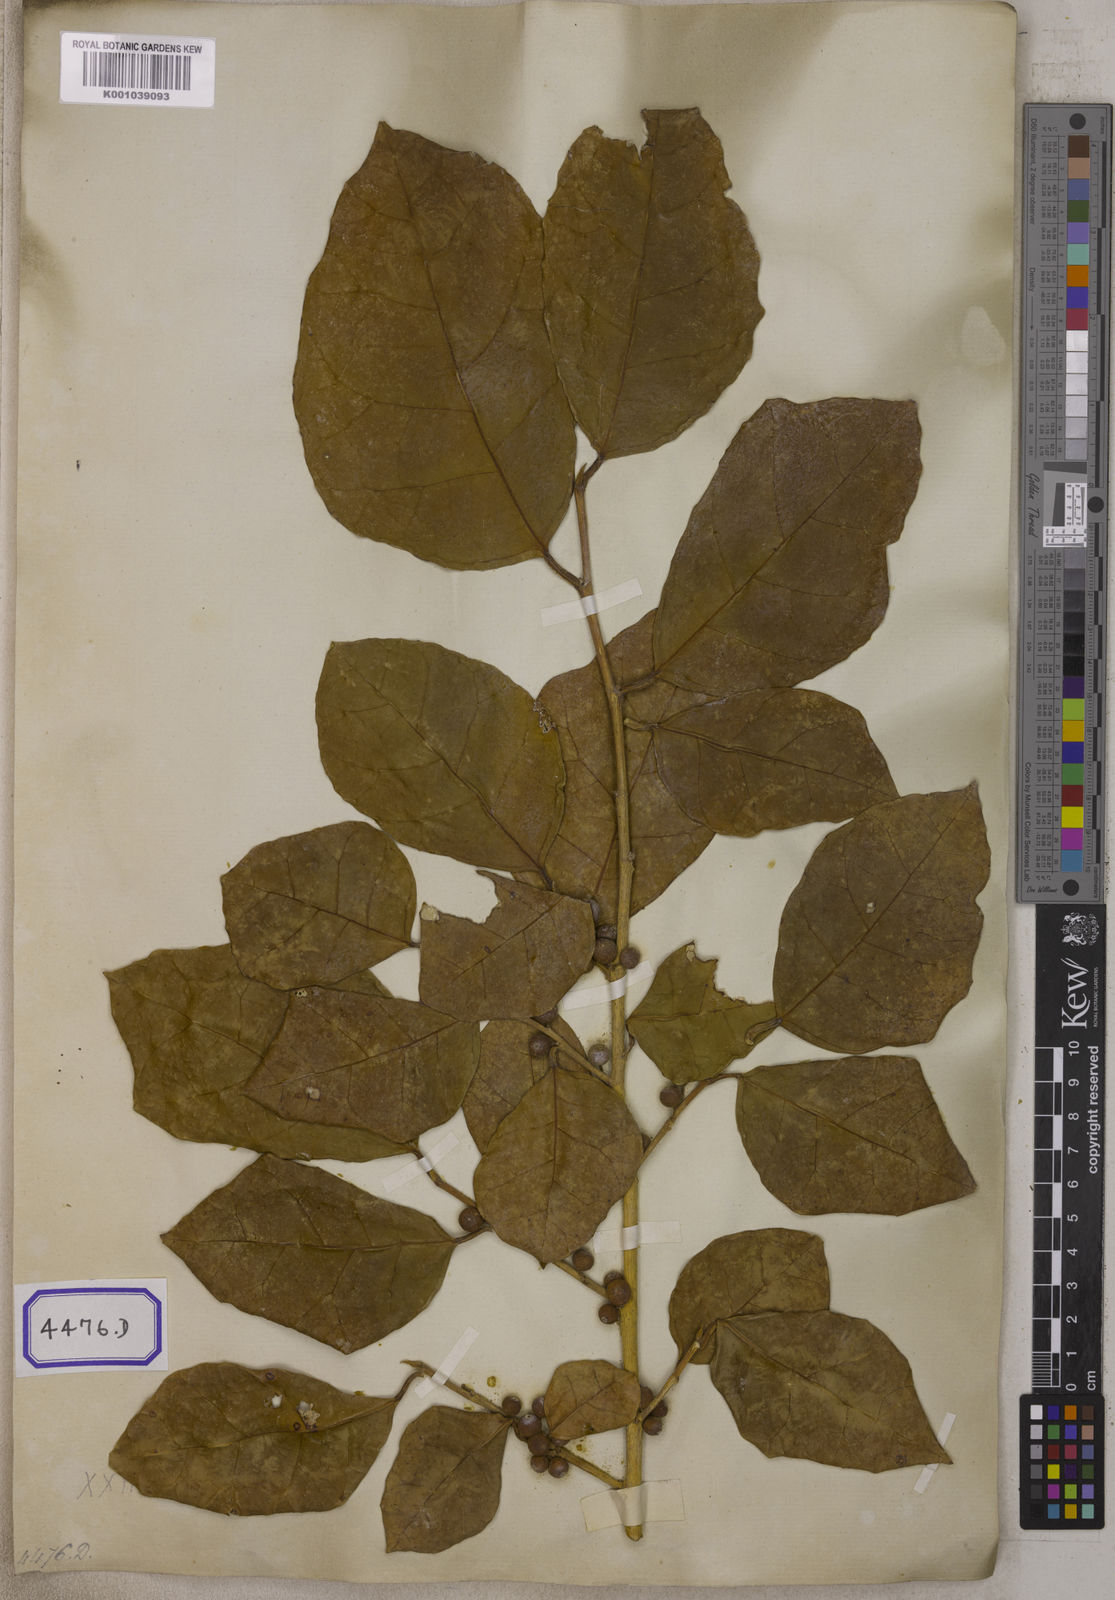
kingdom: Plantae
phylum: Tracheophyta
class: Magnoliopsida
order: Rosales
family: Moraceae
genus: Ficus
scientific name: Ficus tinctoria
